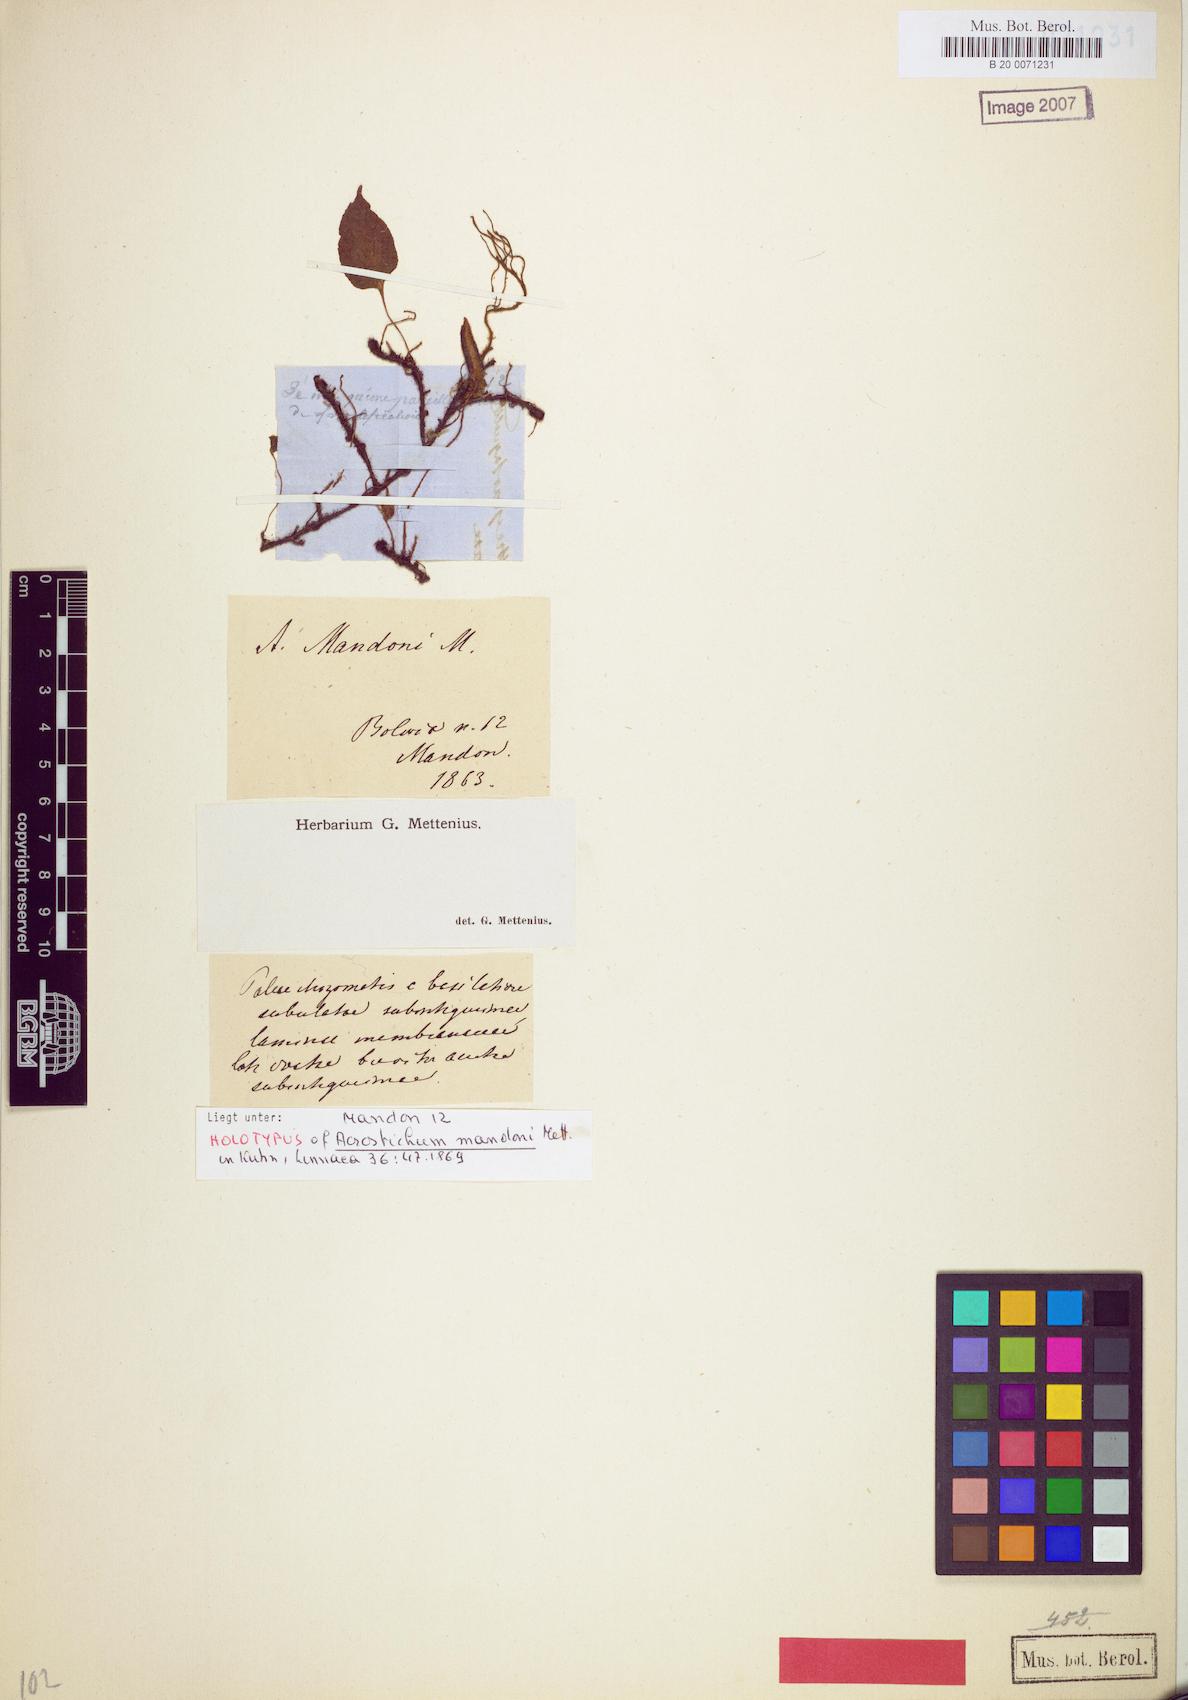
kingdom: Plantae
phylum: Tracheophyta
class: Polypodiopsida
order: Polypodiales
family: Dryopteridaceae
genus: Elaphoglossum
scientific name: Elaphoglossum mandonii
